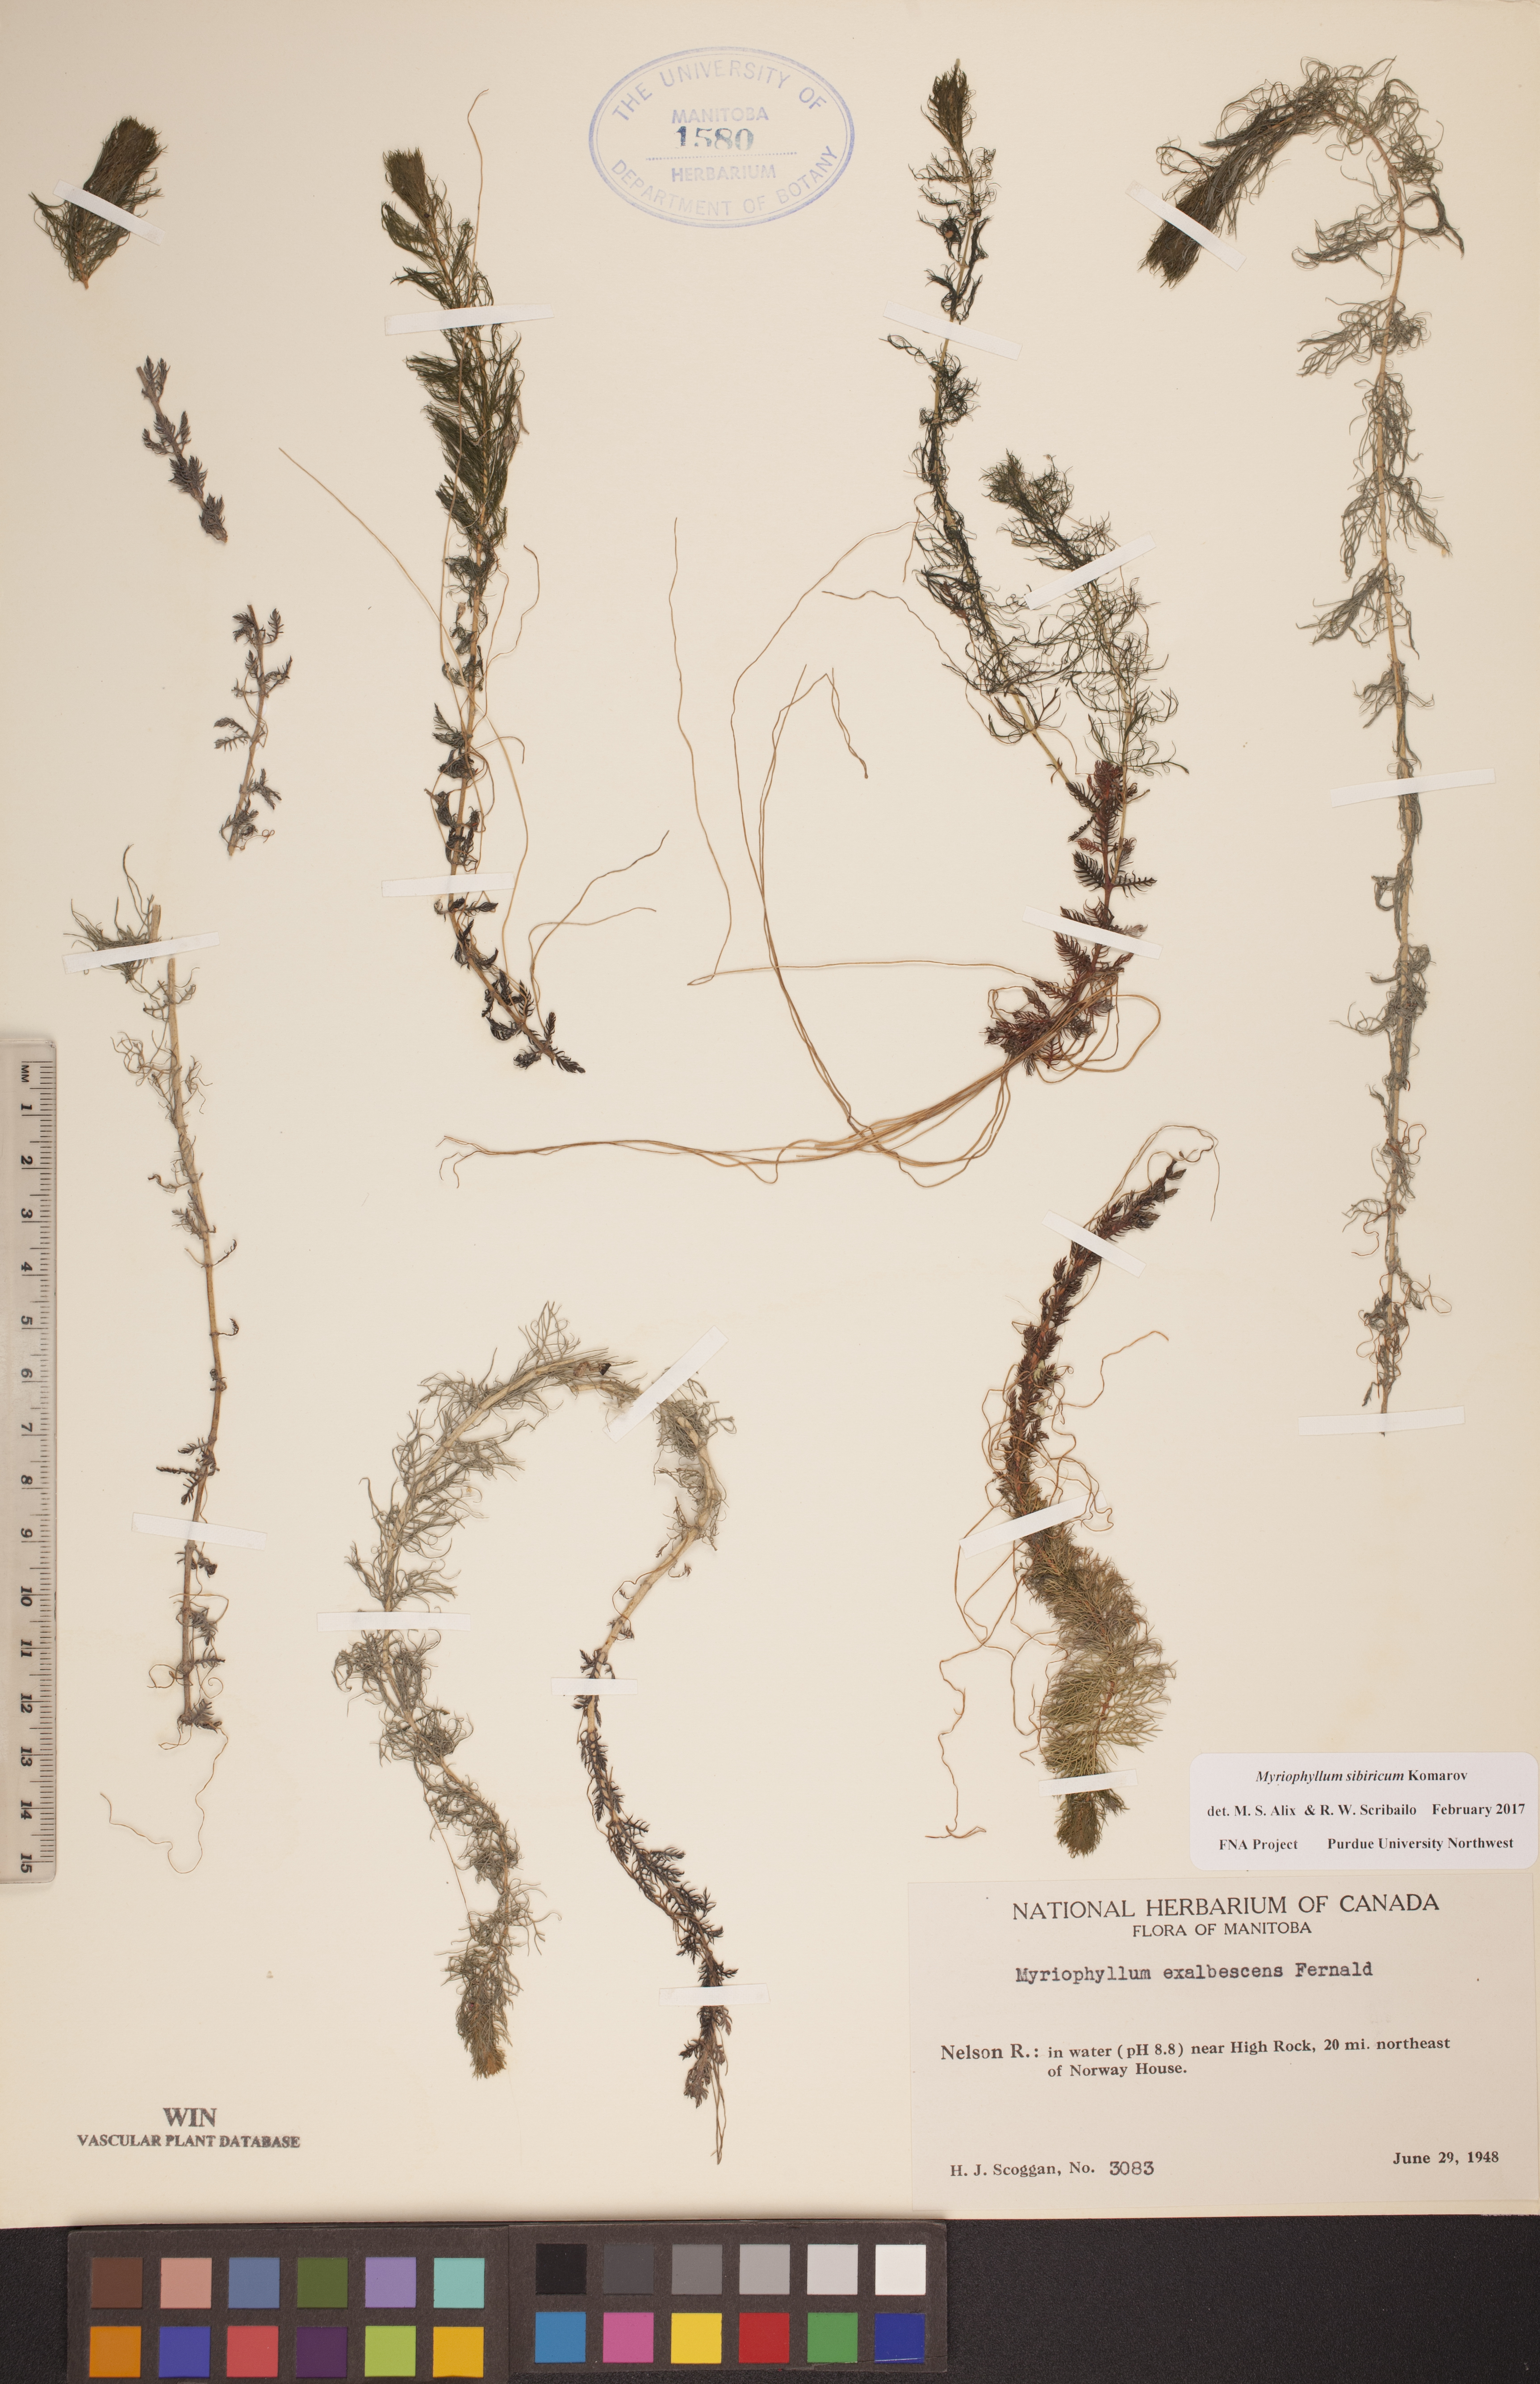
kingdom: Plantae
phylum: Tracheophyta
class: Magnoliopsida
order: Saxifragales
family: Haloragaceae
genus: Myriophyllum
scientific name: Myriophyllum sibiricum
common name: Siberian water-milfoil
